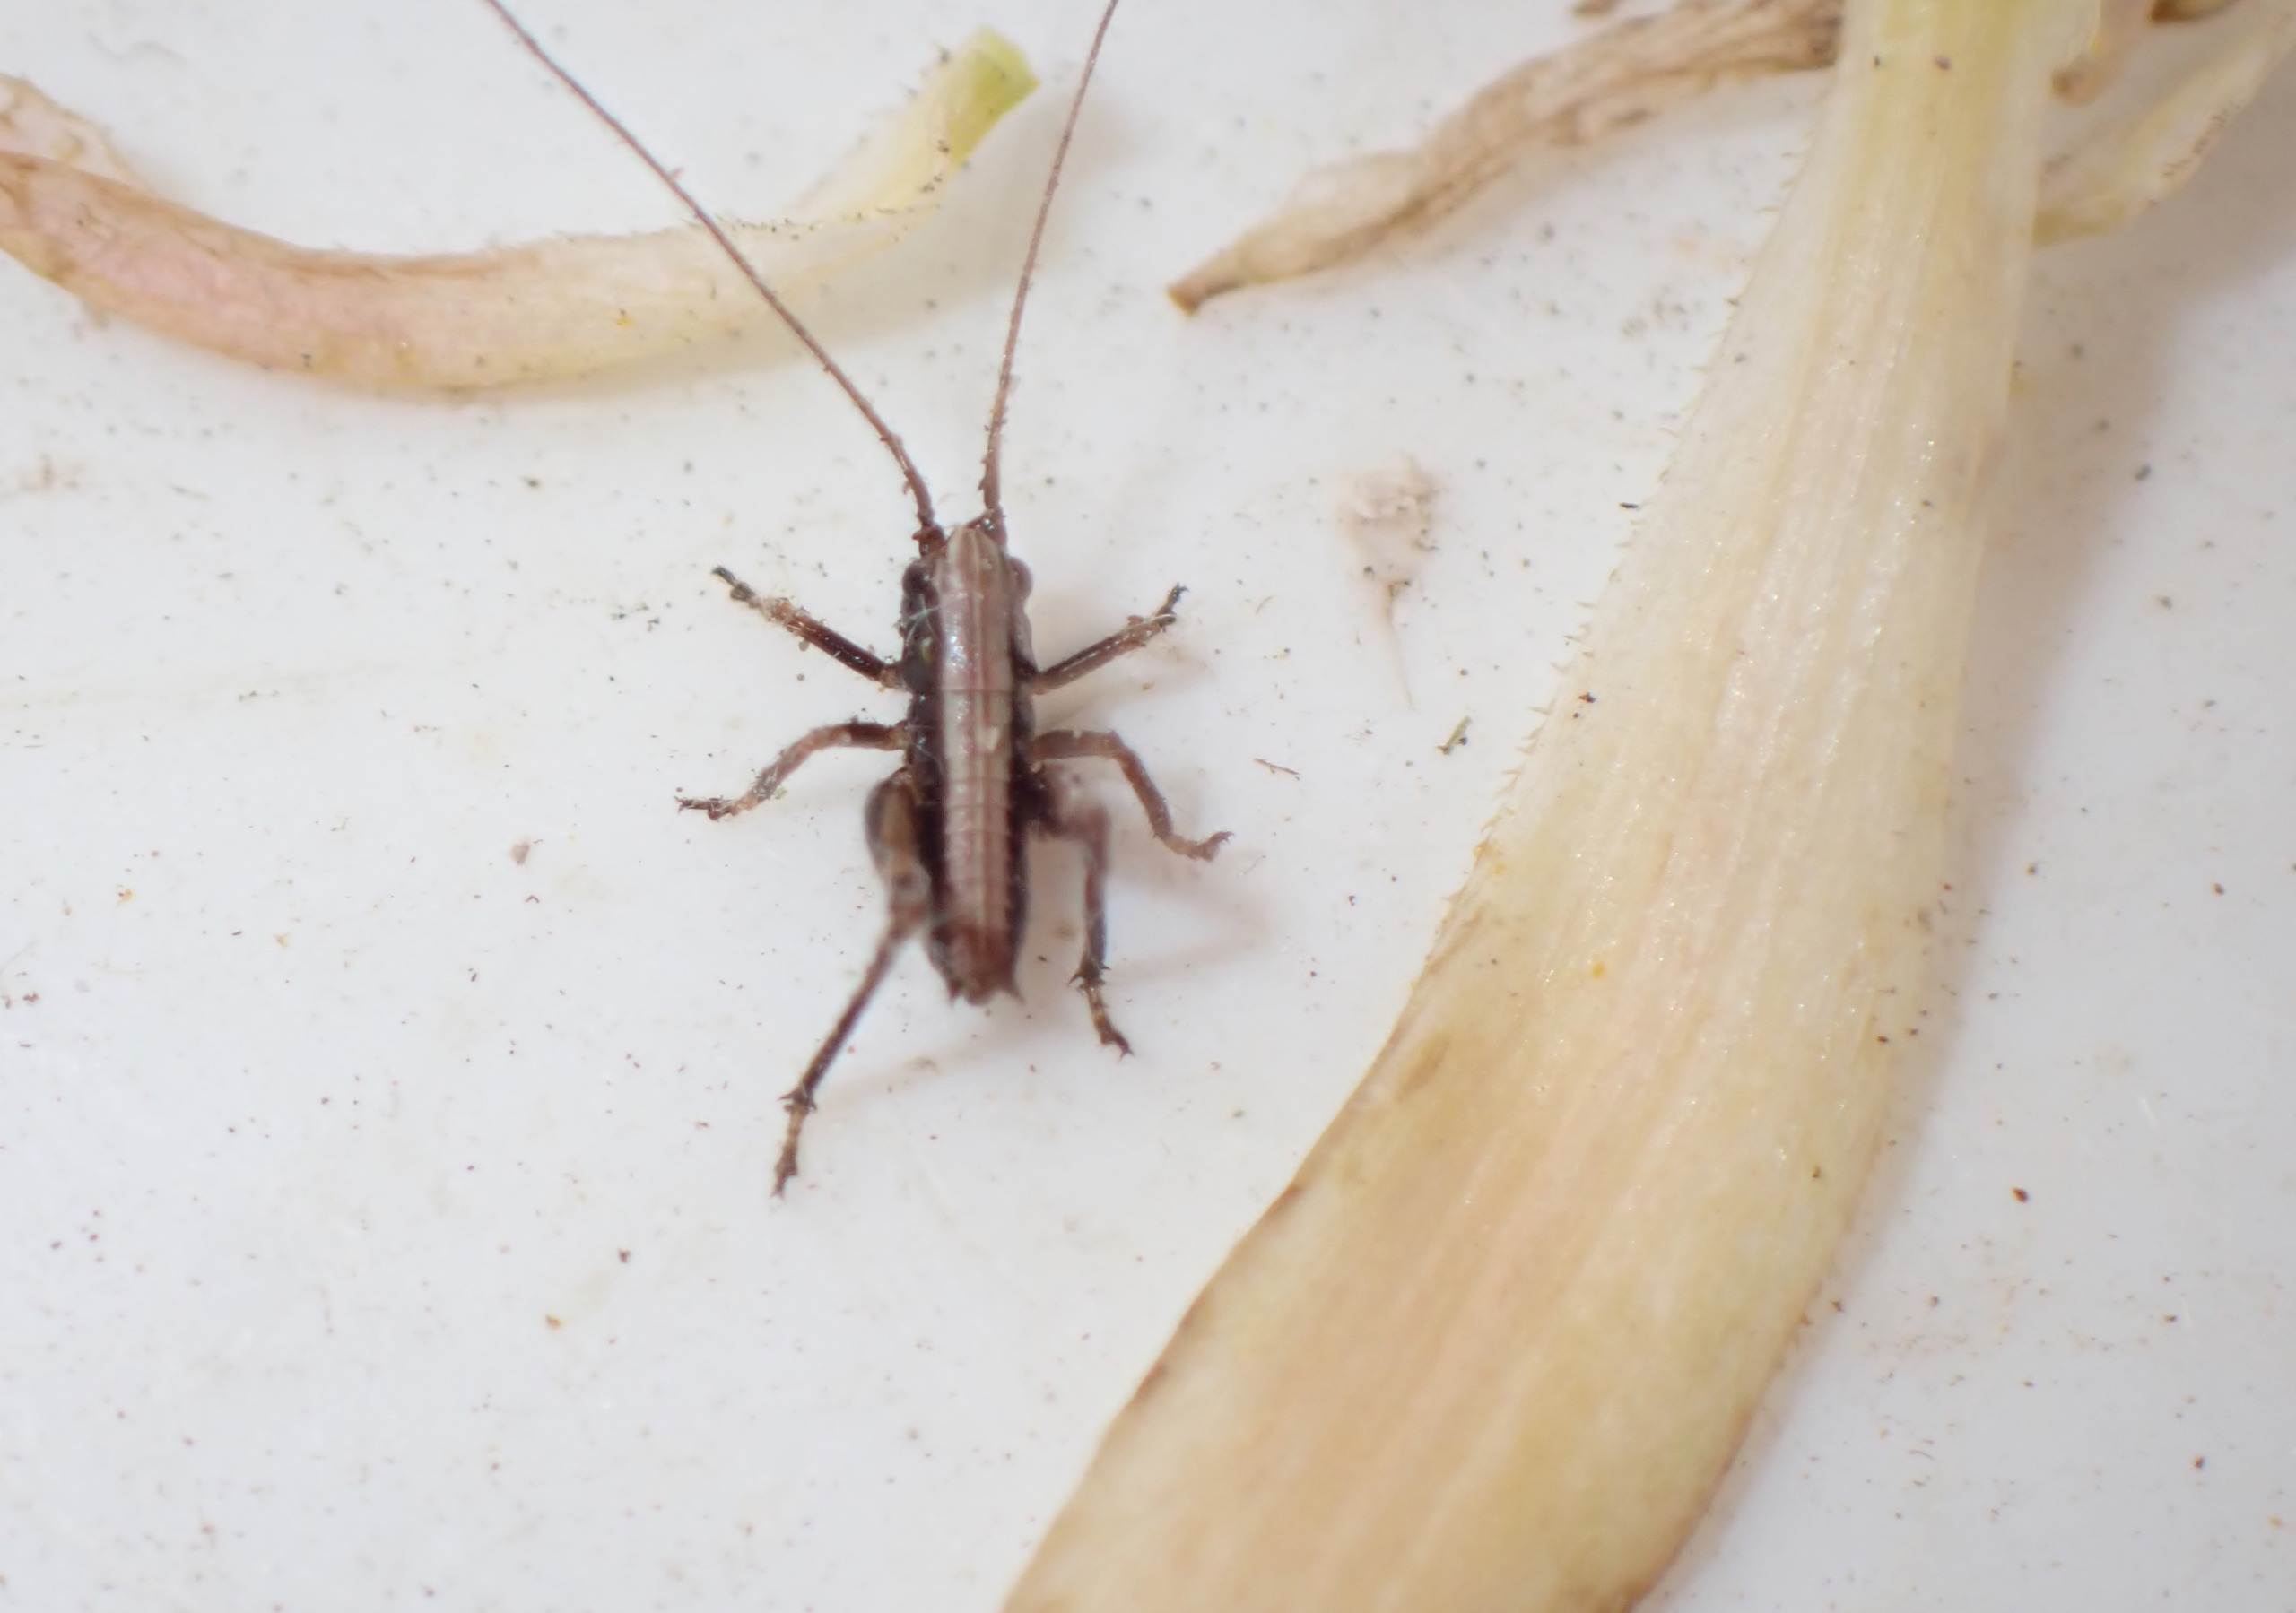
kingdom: Animalia
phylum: Arthropoda
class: Insecta
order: Orthoptera
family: Tettigoniidae
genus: Pholidoptera
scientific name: Pholidoptera griseoaptera
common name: Buskgræshoppe
